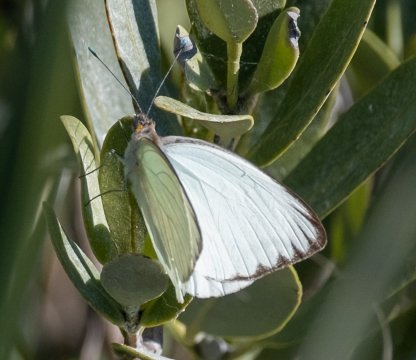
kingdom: Animalia
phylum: Arthropoda
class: Insecta
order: Lepidoptera
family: Pieridae
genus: Ascia
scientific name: Ascia monuste
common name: Great Southern White
